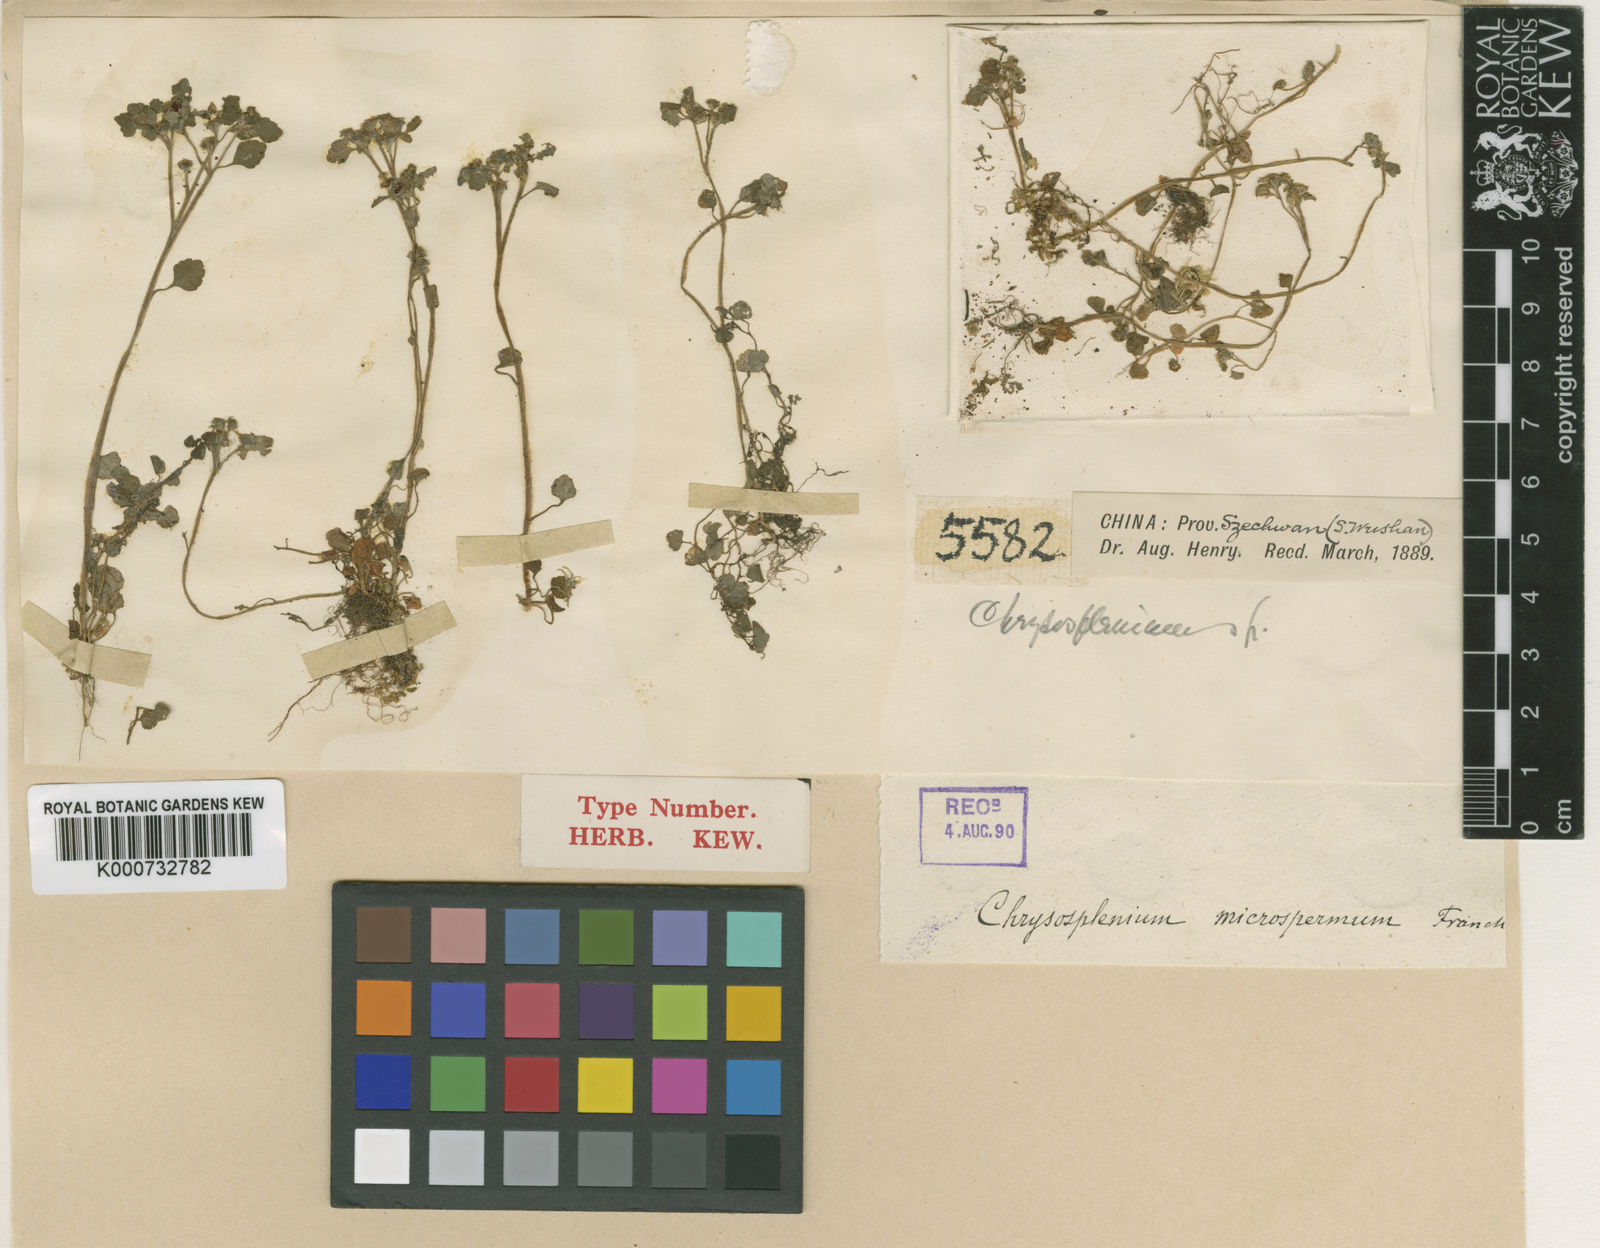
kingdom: Plantae
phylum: Tracheophyta
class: Magnoliopsida
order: Saxifragales
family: Saxifragaceae
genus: Chrysosplenium
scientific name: Chrysosplenium microspermum
